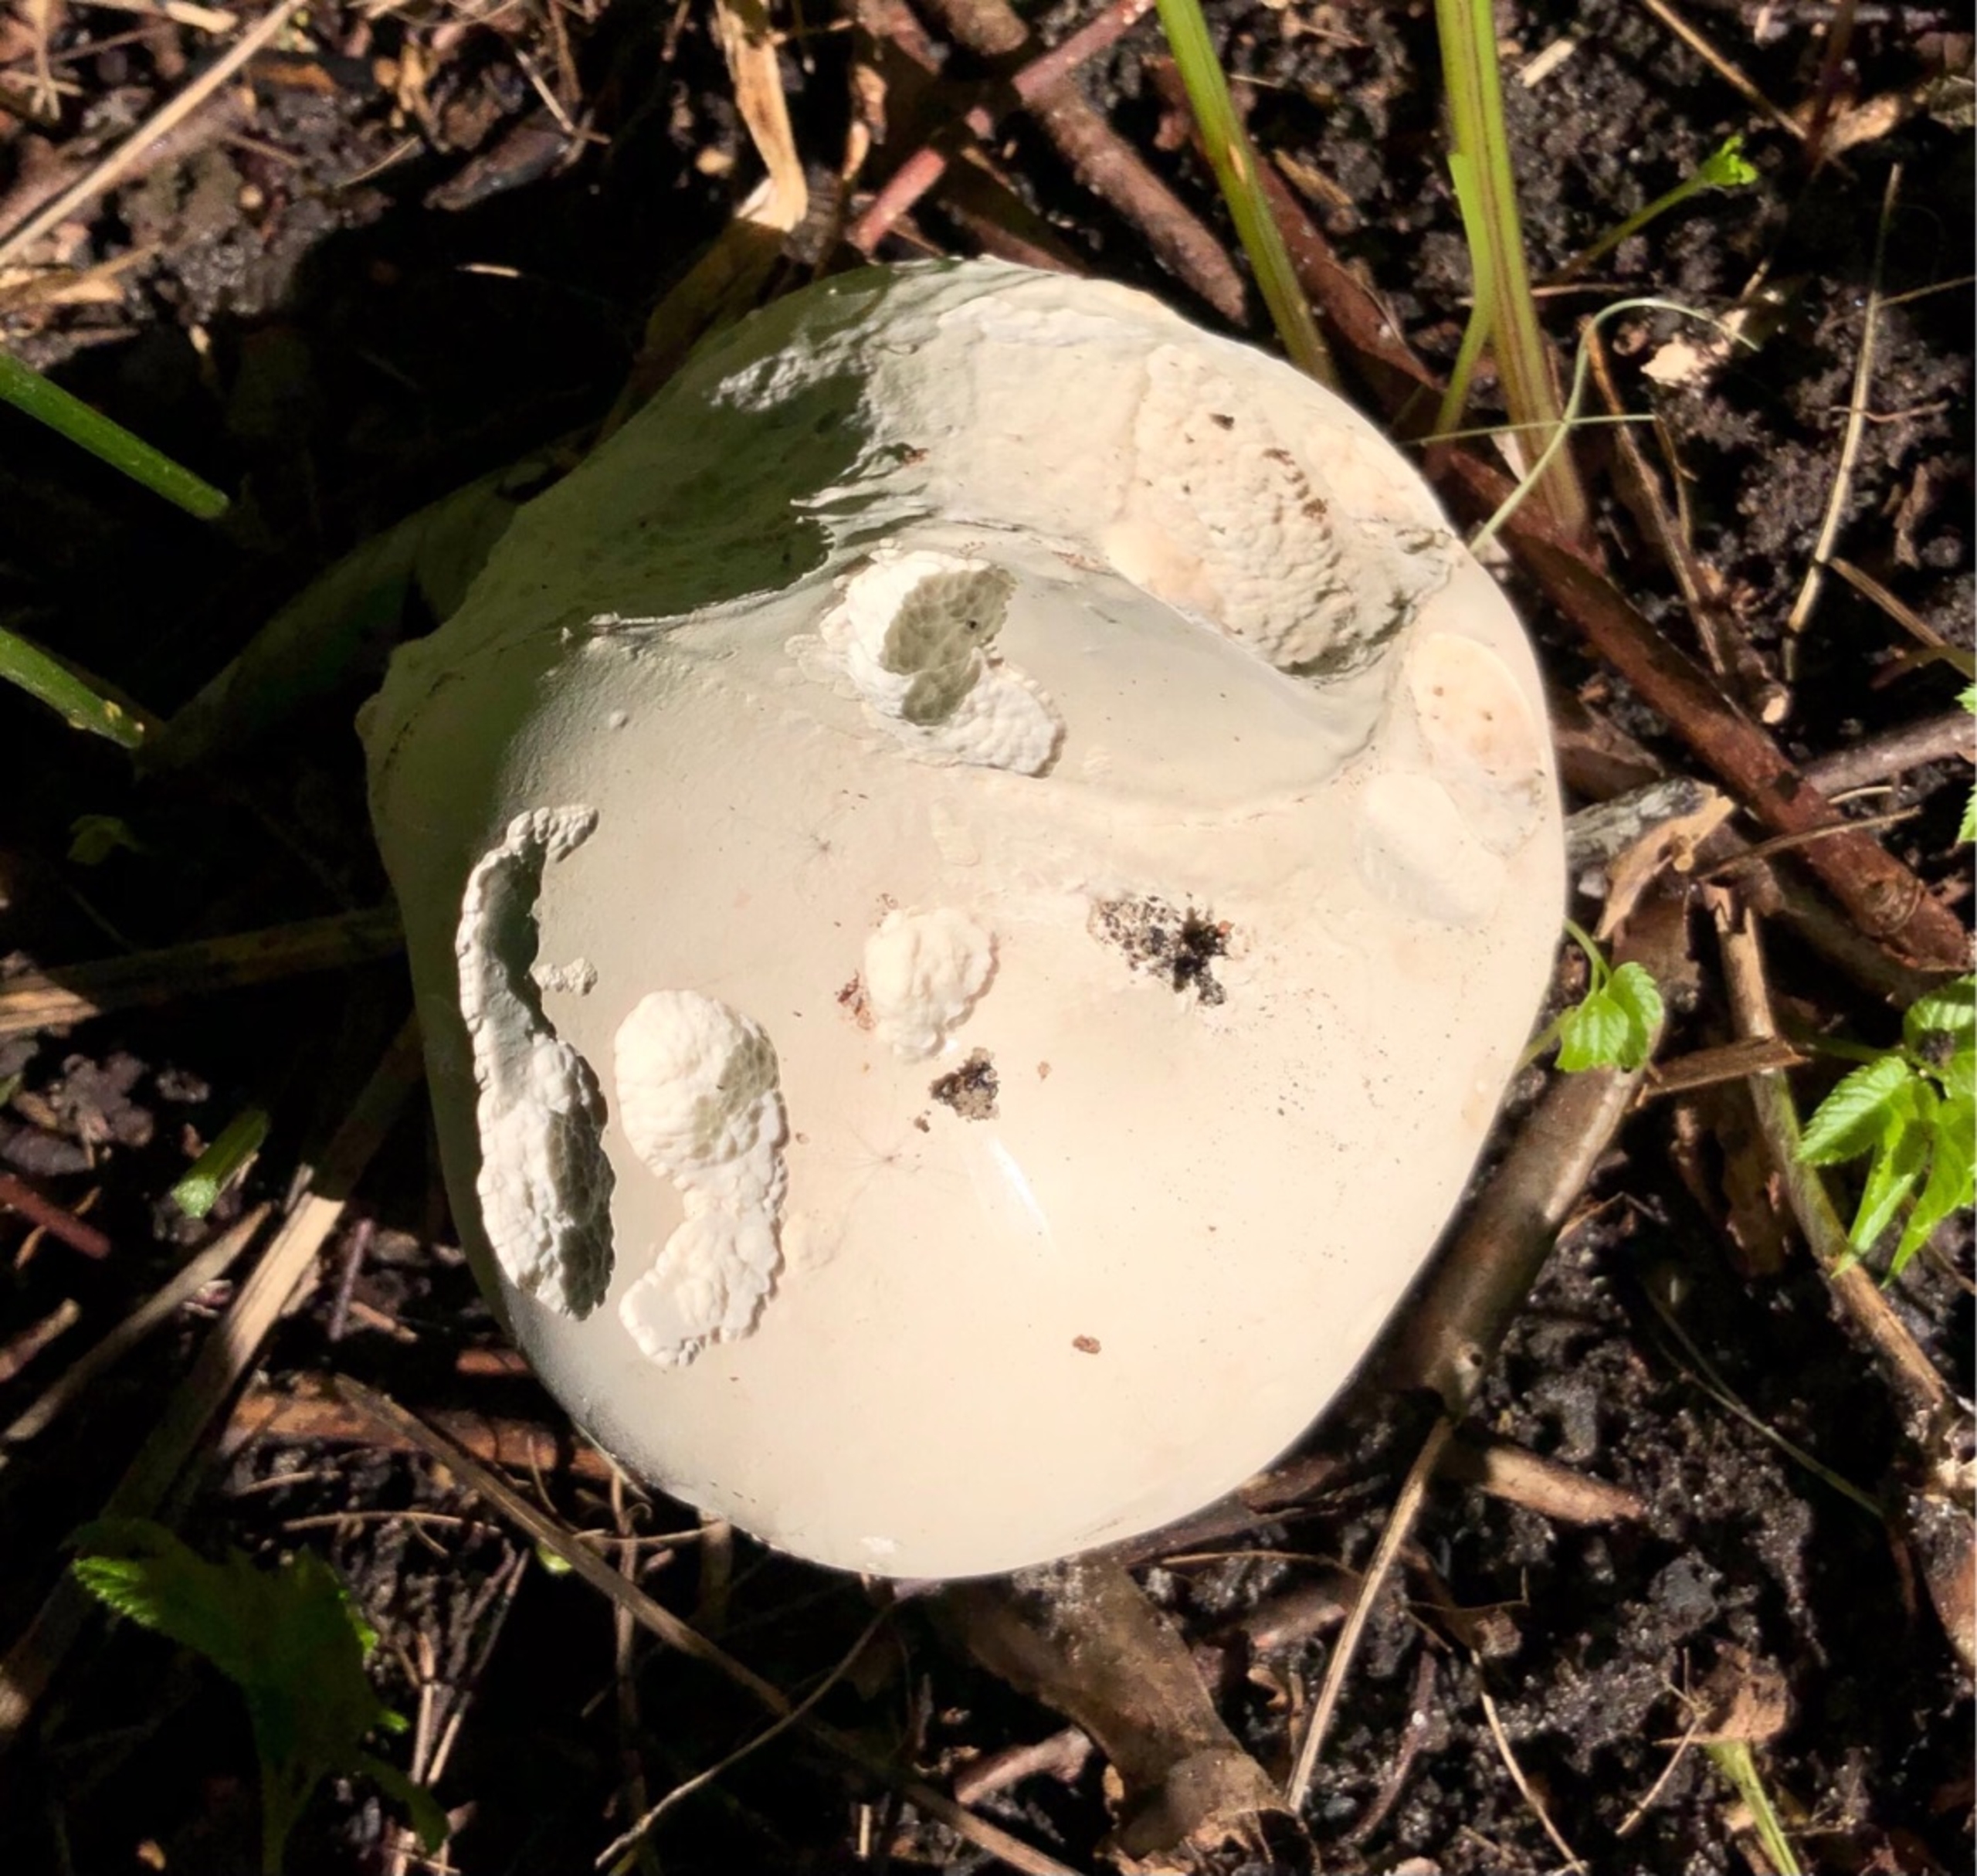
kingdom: Fungi
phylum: Basidiomycota
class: Agaricomycetes
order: Agaricales
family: Lycoperdaceae
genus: Calvatia
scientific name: Calvatia gigantea
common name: Kæmpestøvbold
